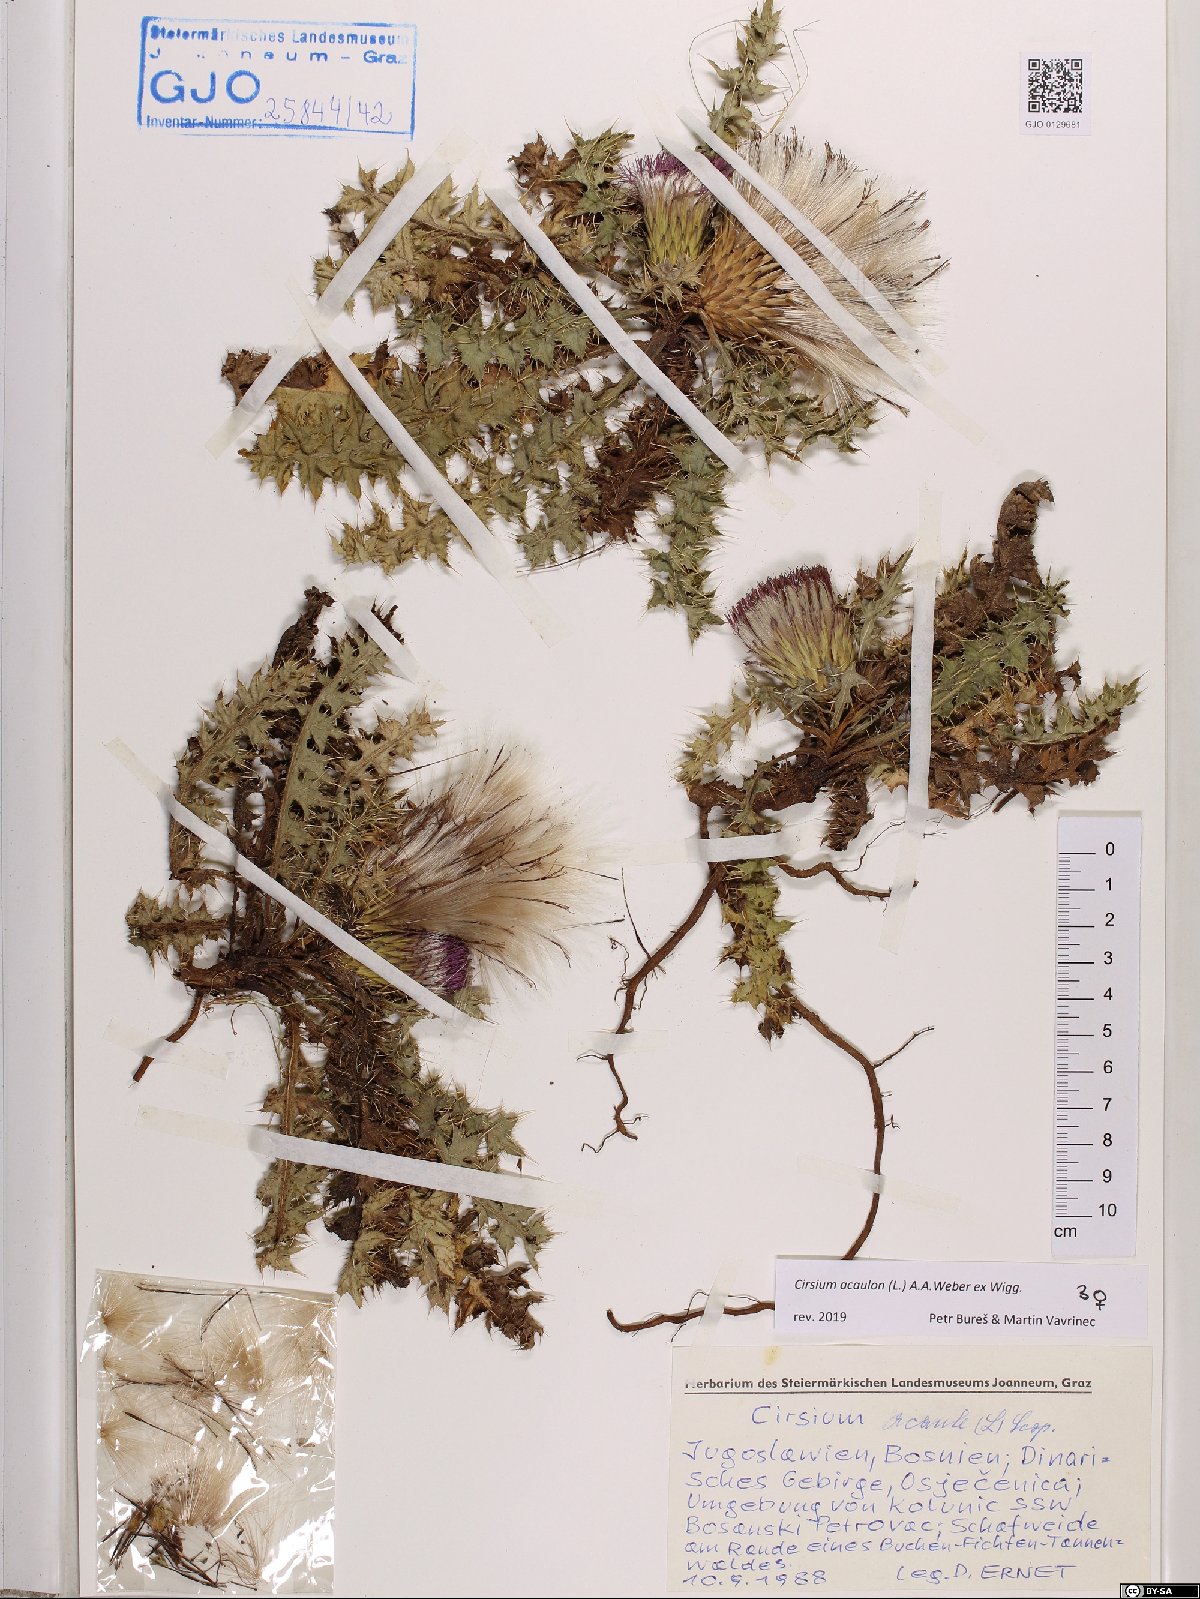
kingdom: Plantae
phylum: Tracheophyta
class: Magnoliopsida
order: Asterales
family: Asteraceae
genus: Cirsium
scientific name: Cirsium acaulon
